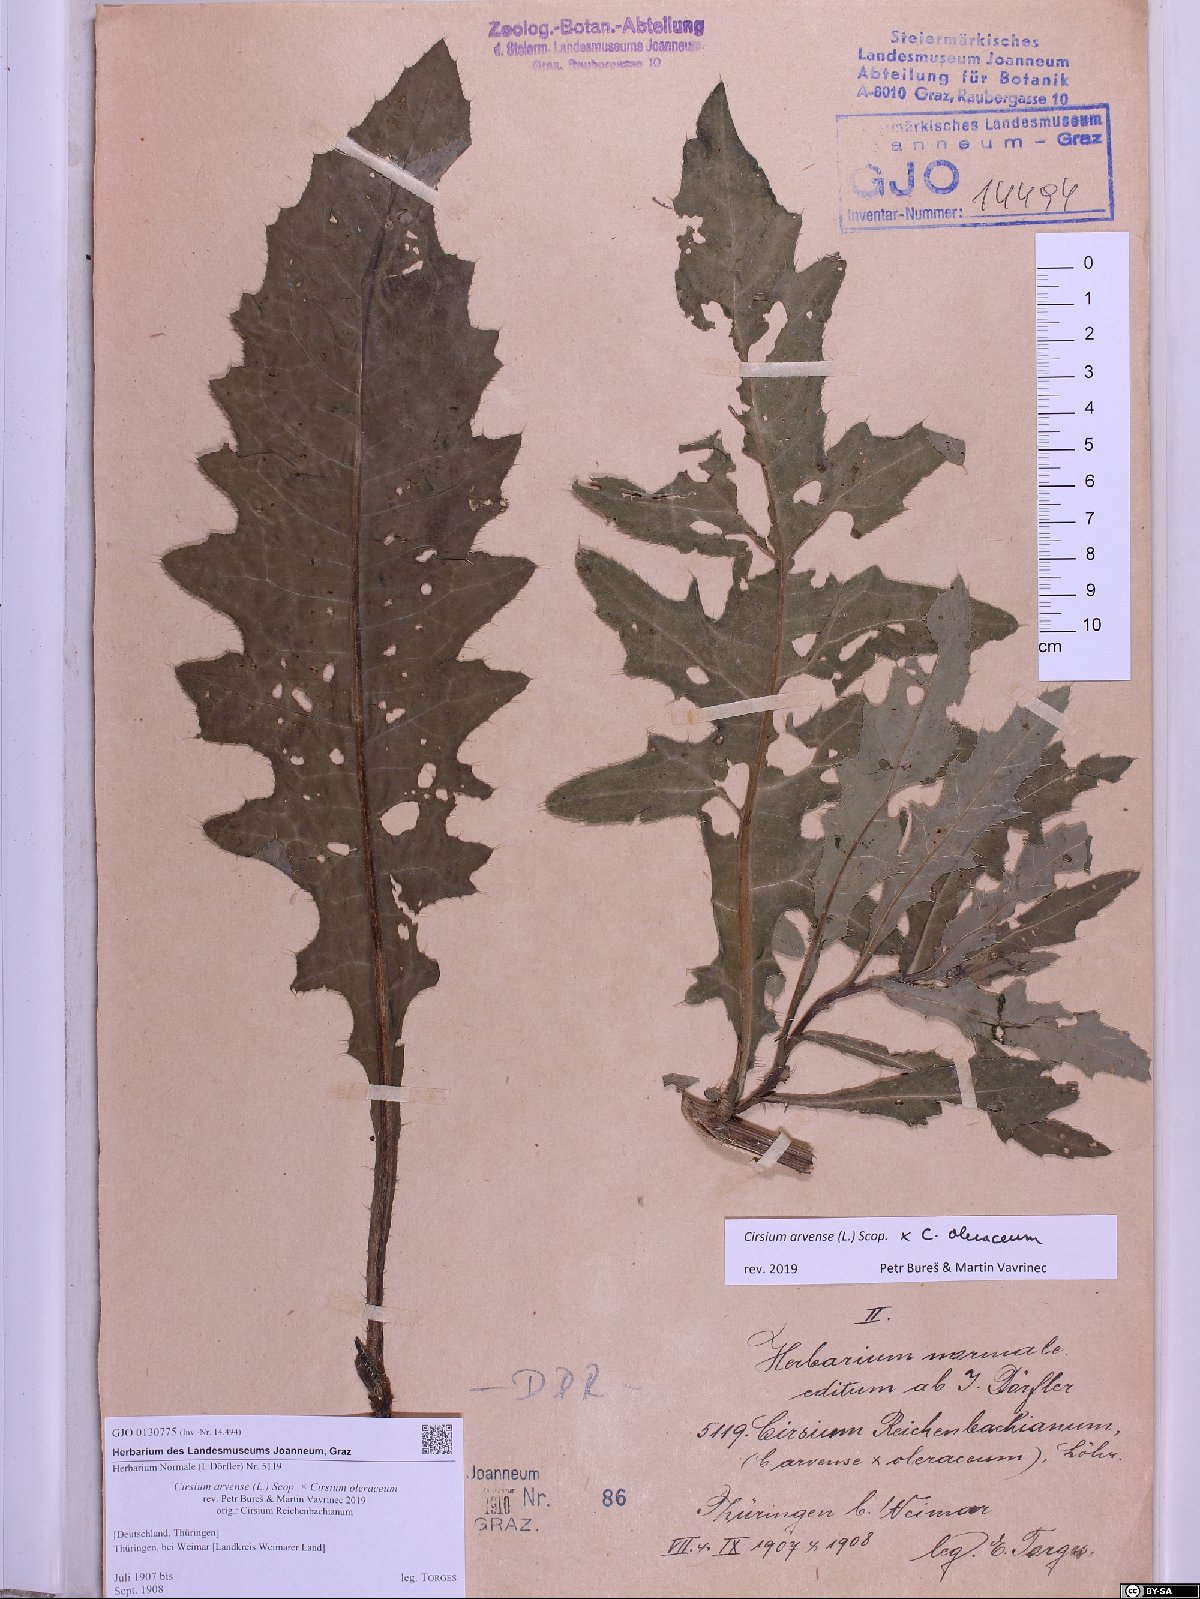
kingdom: Plantae
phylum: Tracheophyta
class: Magnoliopsida
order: Asterales
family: Asteraceae
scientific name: Asteraceae
